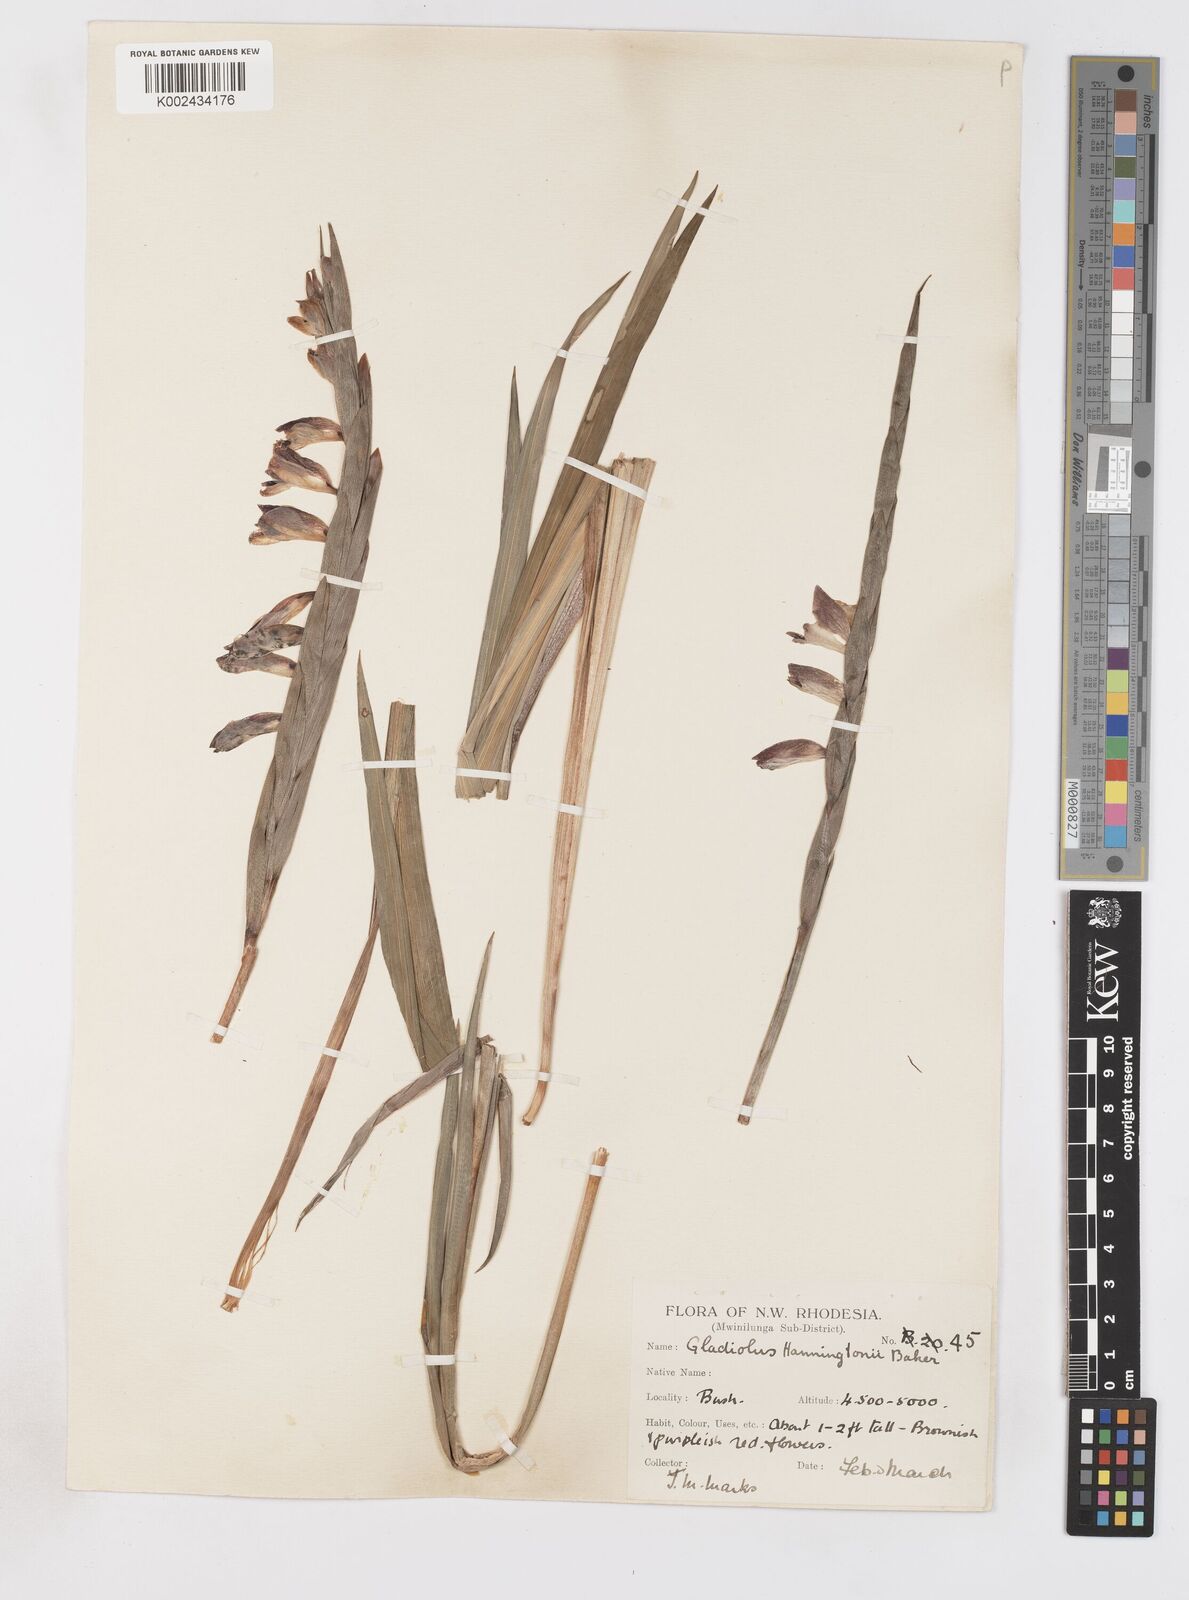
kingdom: Plantae
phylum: Tracheophyta
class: Liliopsida
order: Asparagales
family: Iridaceae
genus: Gladiolus
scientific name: Gladiolus gregarius
